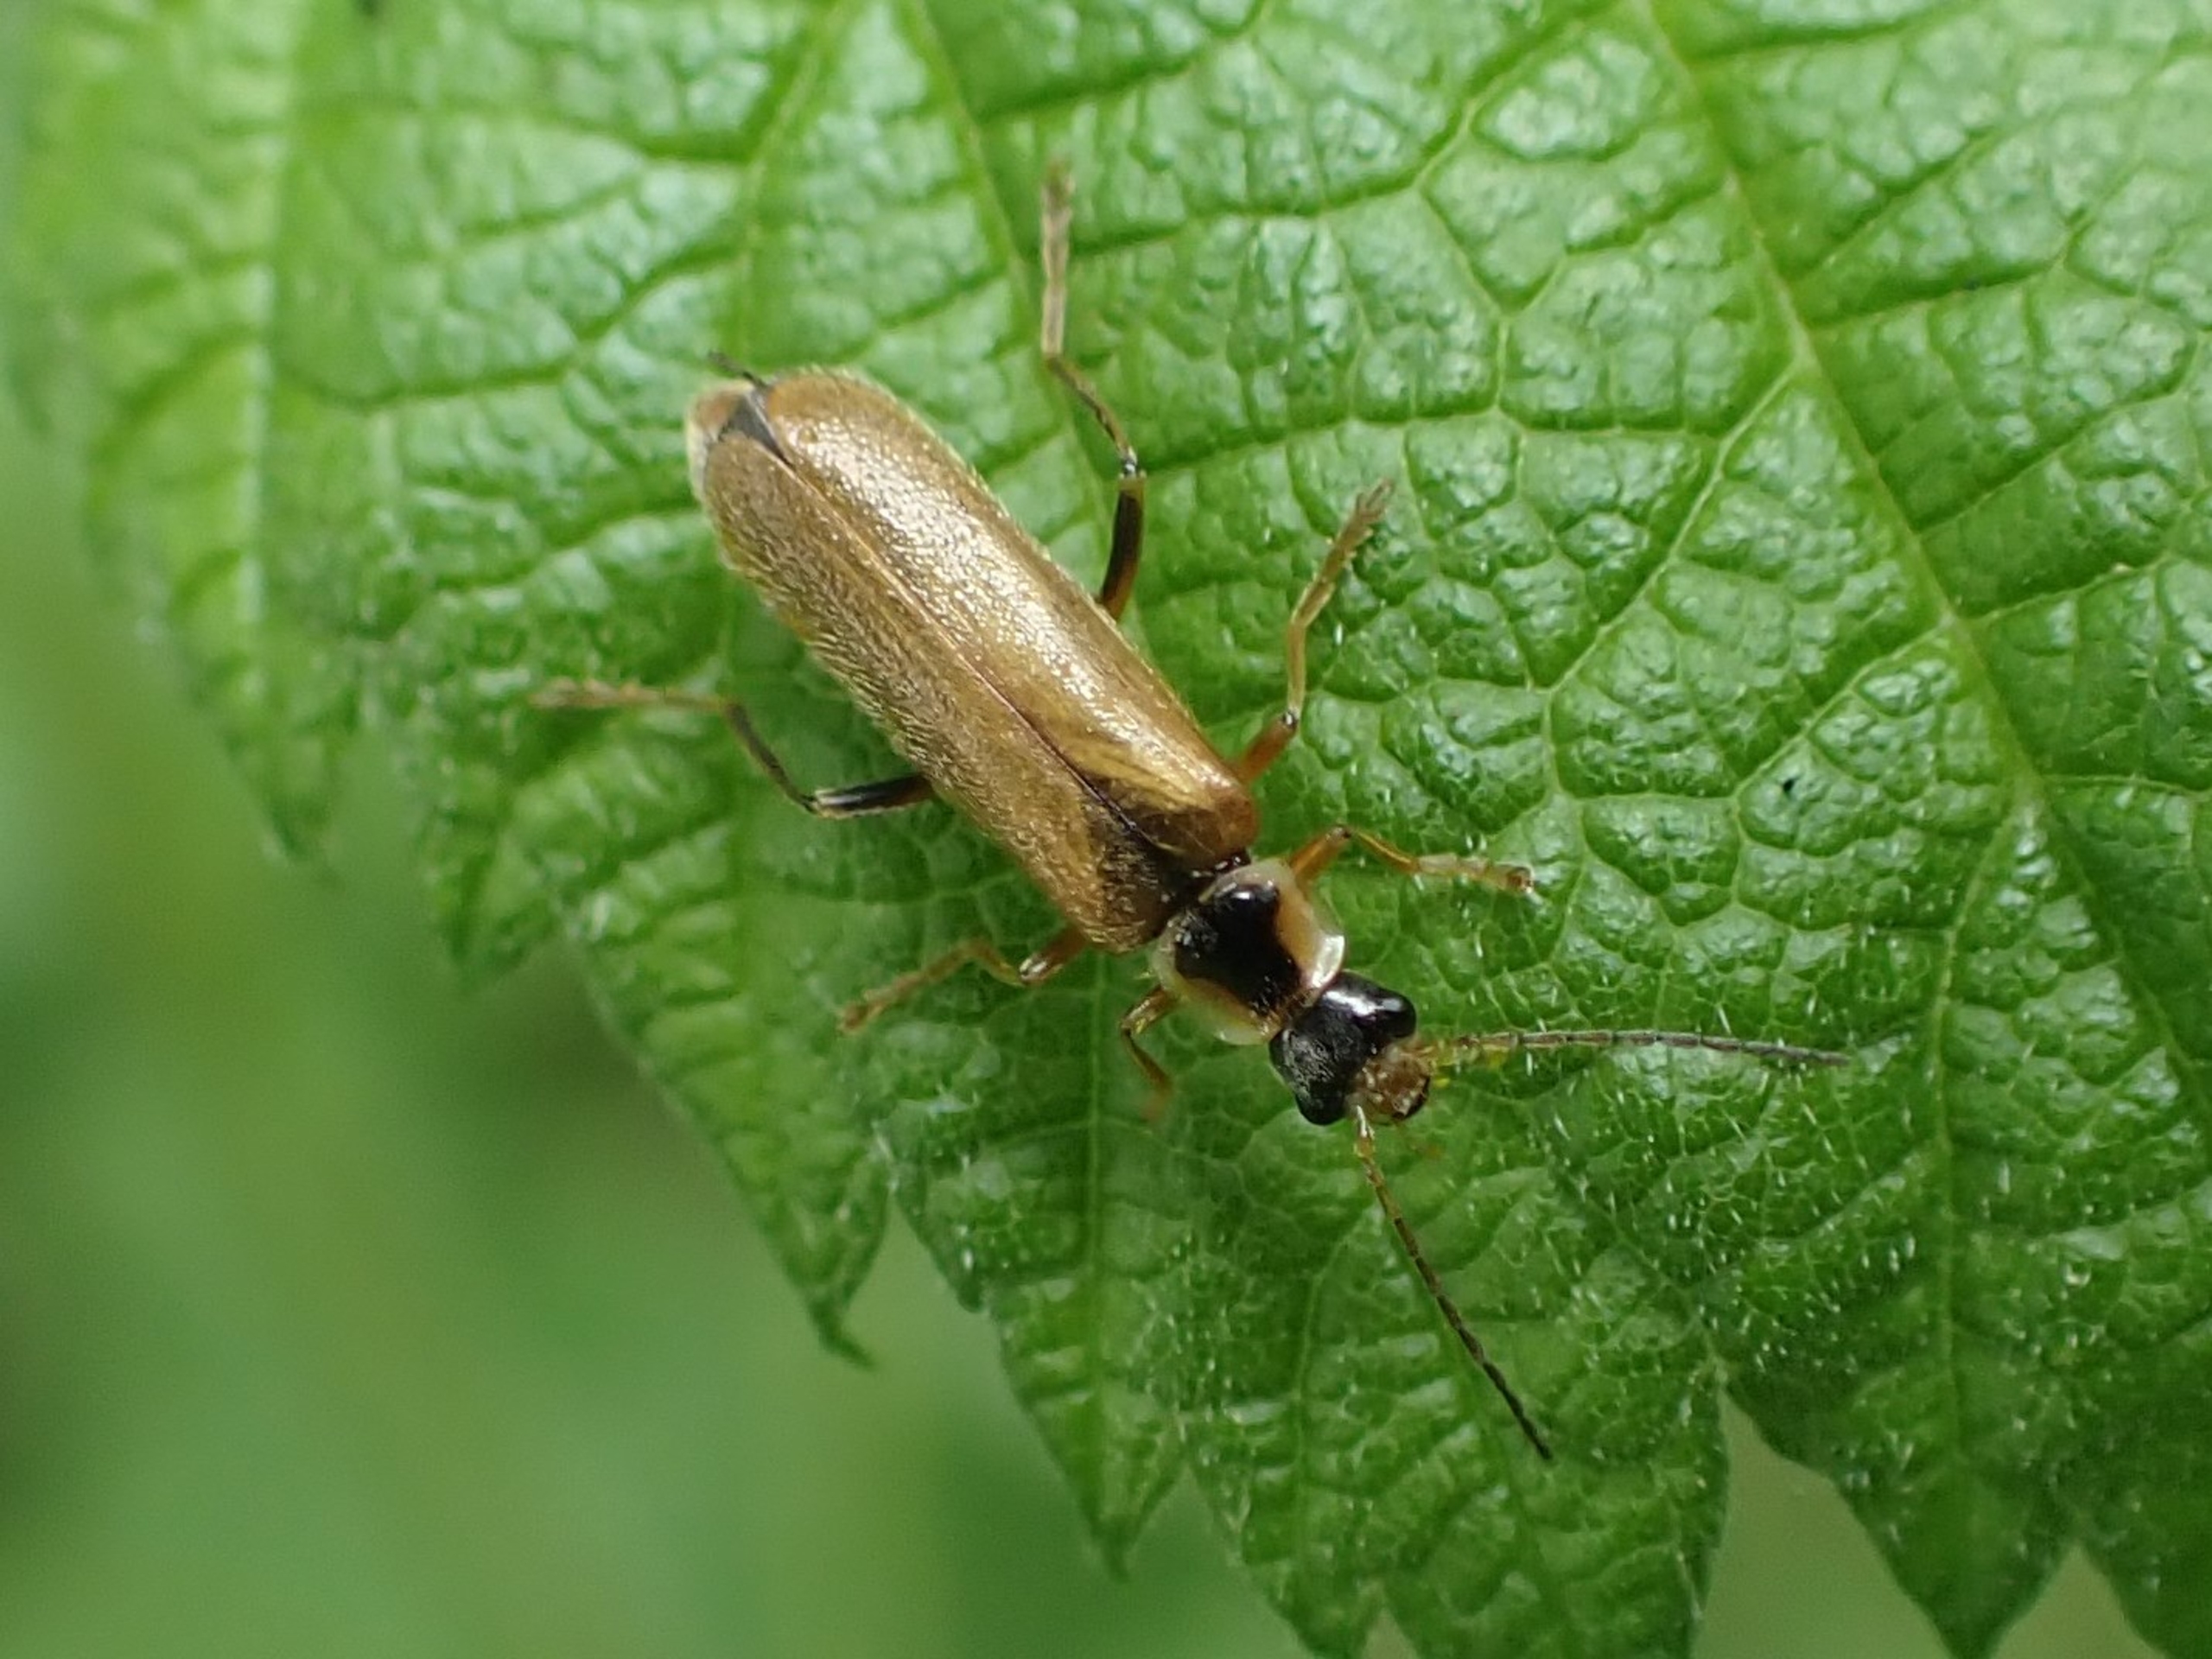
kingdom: Animalia
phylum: Arthropoda
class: Insecta
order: Coleoptera
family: Cantharidae
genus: Cantharis
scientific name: Cantharis decipiens
